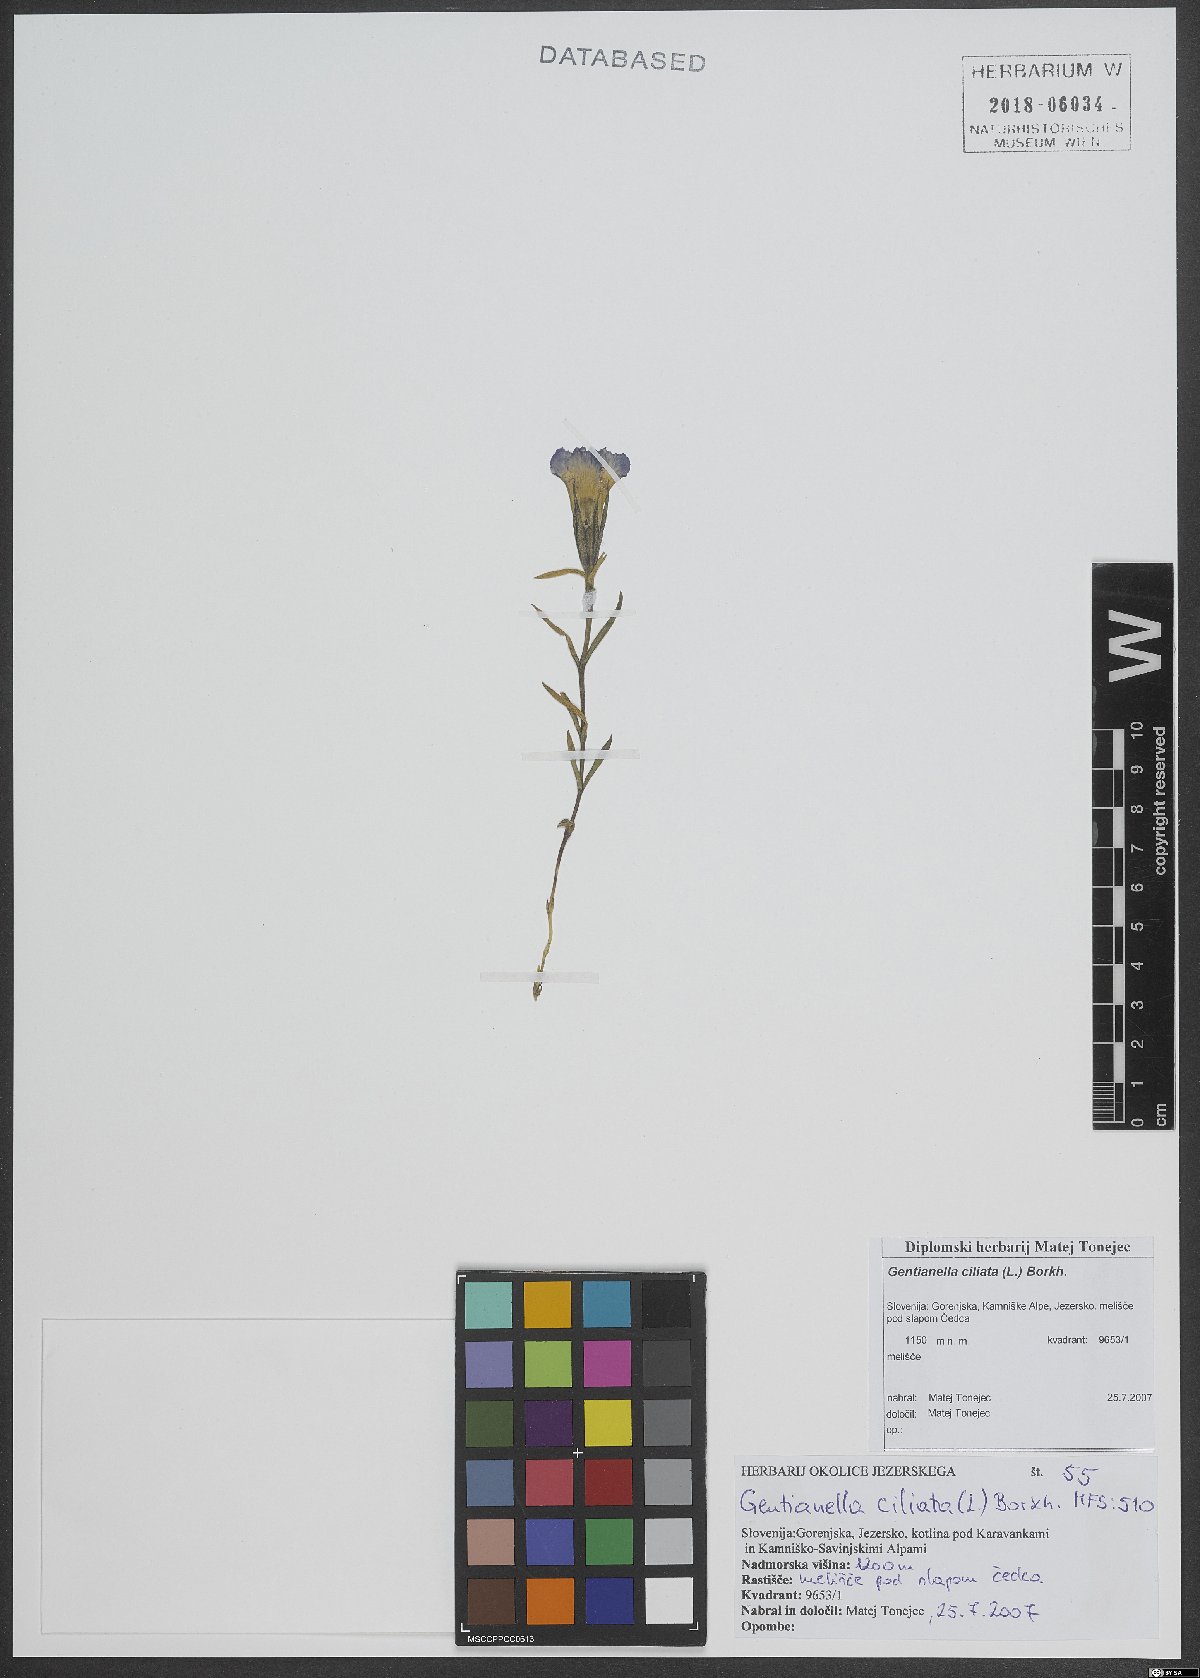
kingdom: Plantae
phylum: Tracheophyta
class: Magnoliopsida
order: Gentianales
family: Gentianaceae
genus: Gentianopsis
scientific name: Gentianopsis ciliata
